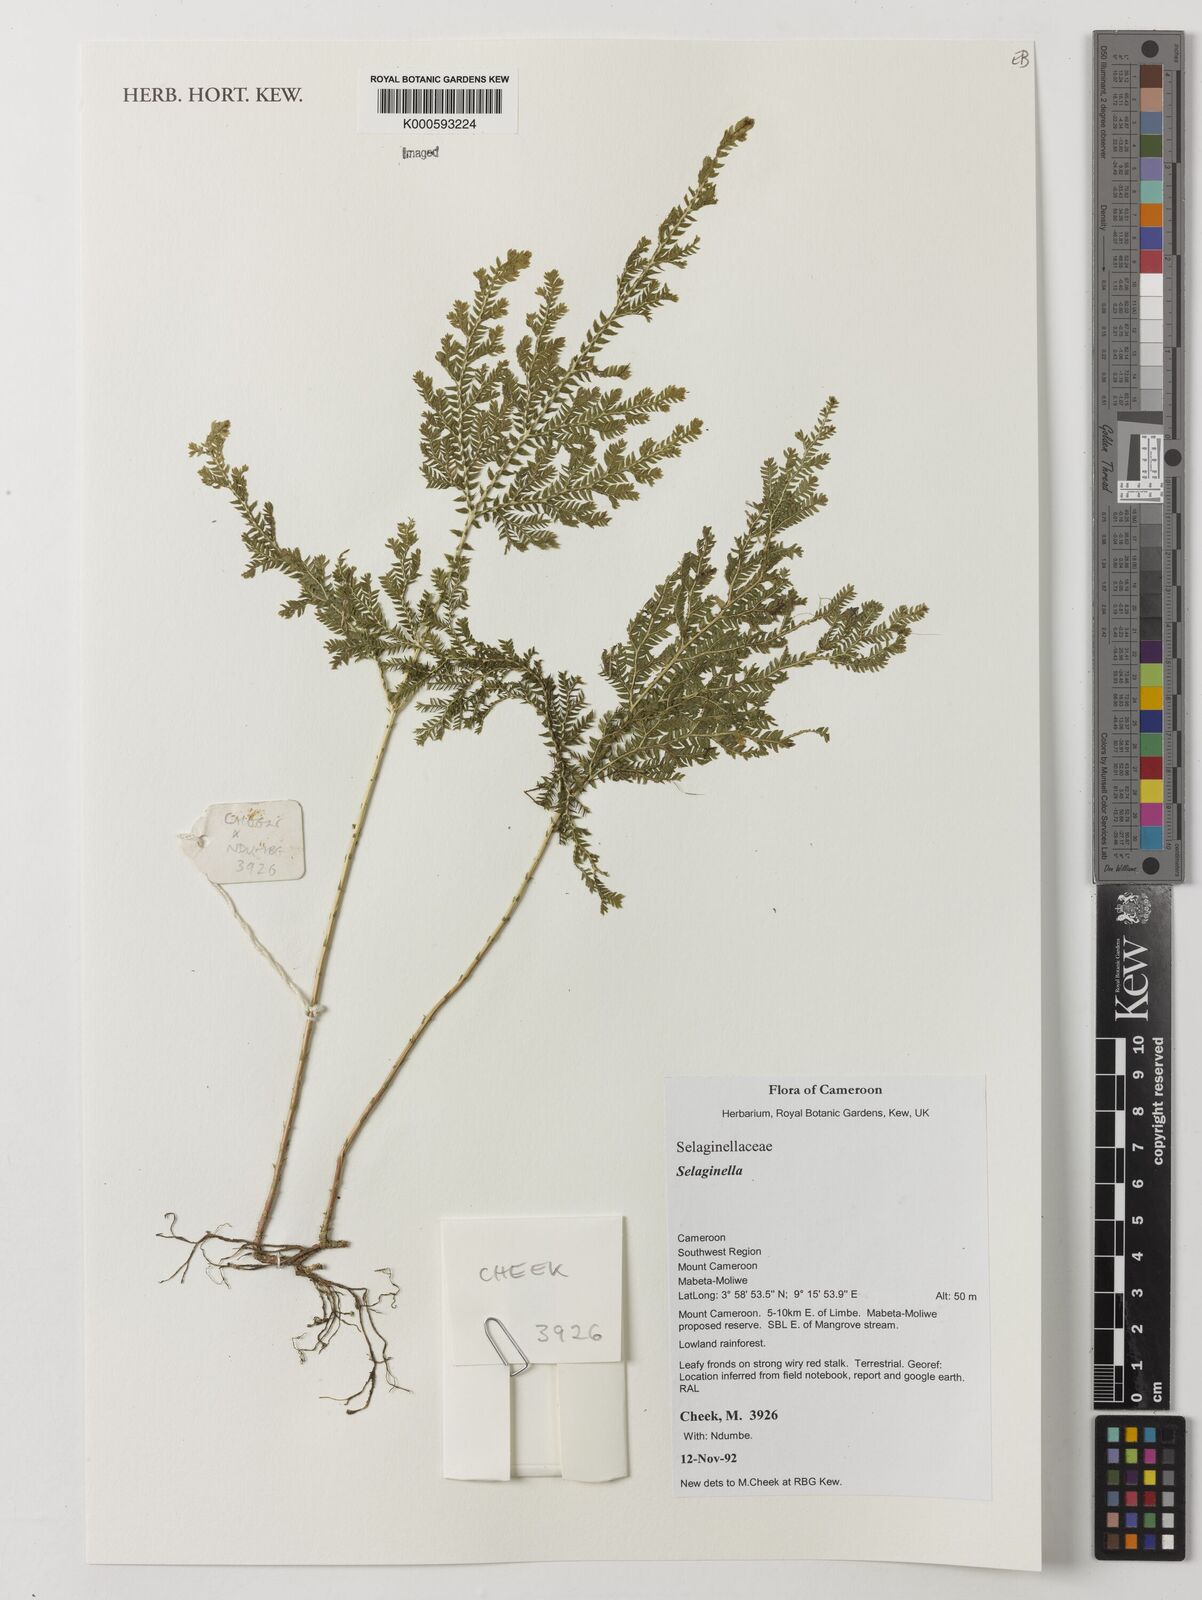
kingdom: Plantae
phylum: Tracheophyta
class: Lycopodiopsida
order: Selaginellales
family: Selaginellaceae
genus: Selaginella
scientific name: Selaginella
